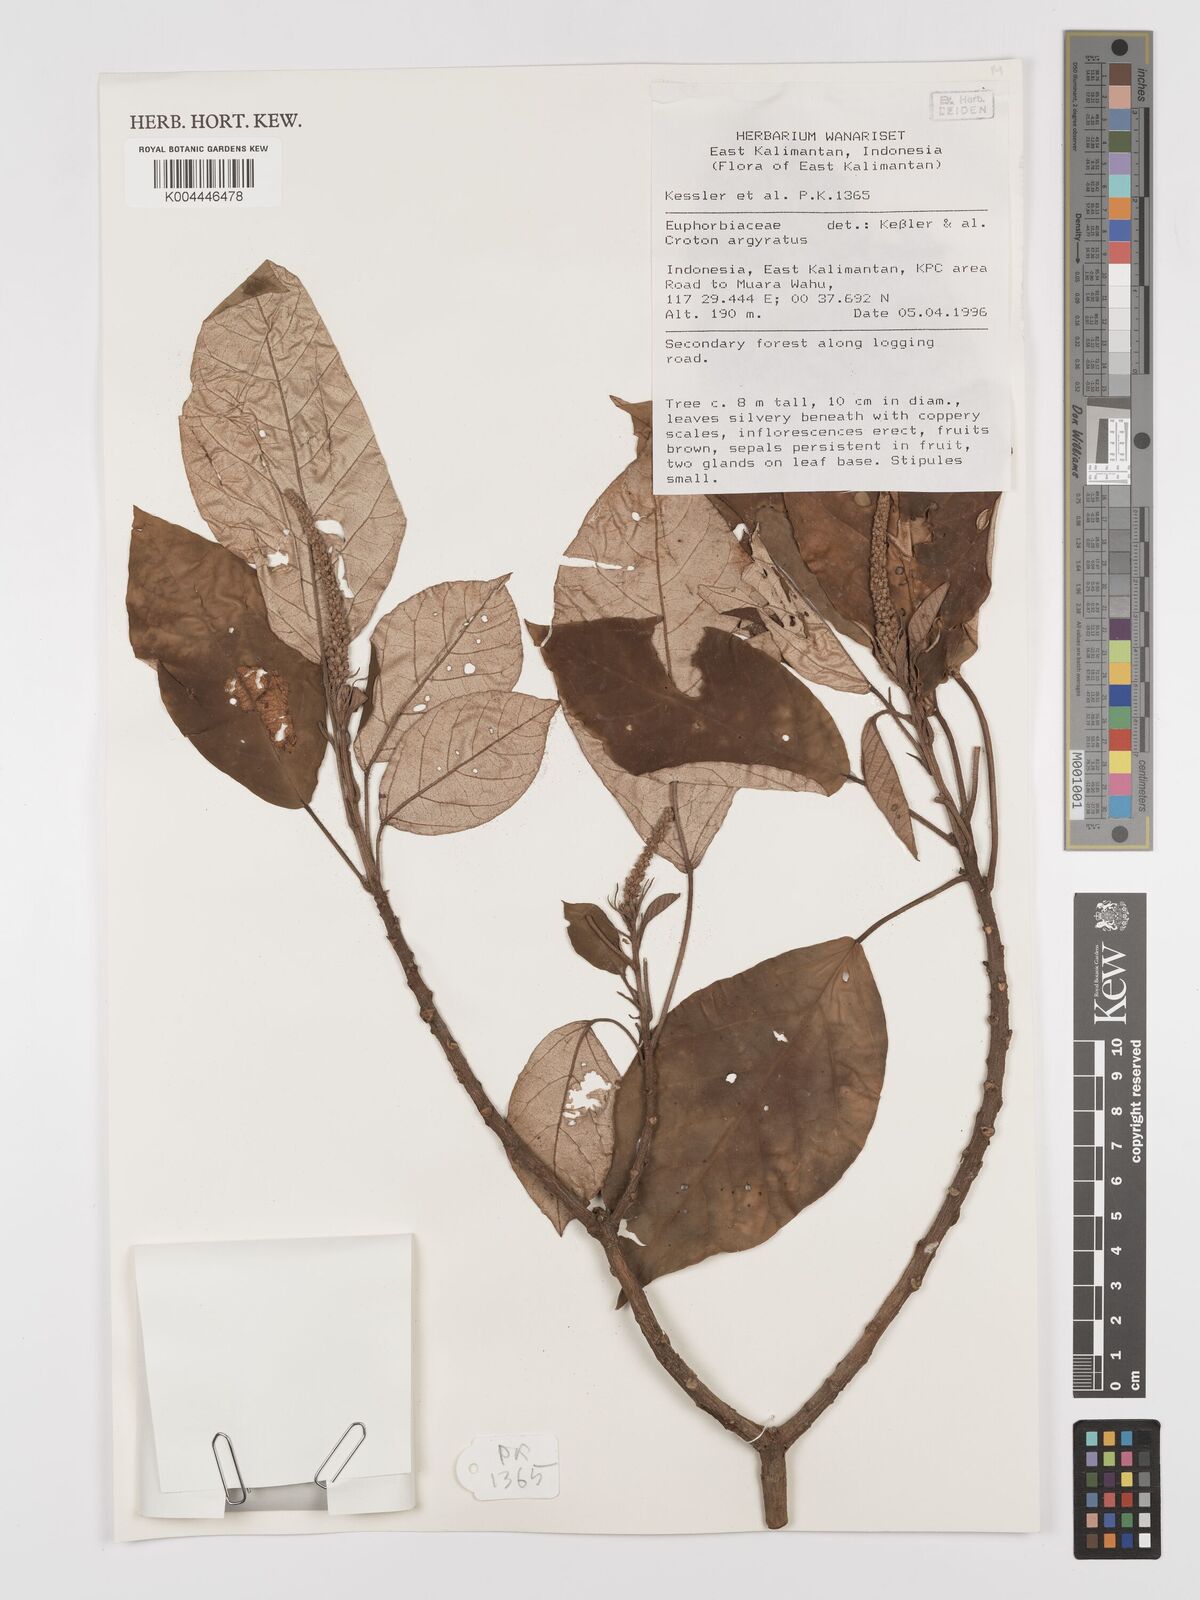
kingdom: Plantae
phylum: Tracheophyta
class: Magnoliopsida
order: Malpighiales
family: Euphorbiaceae
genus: Croton
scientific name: Croton argyratus
